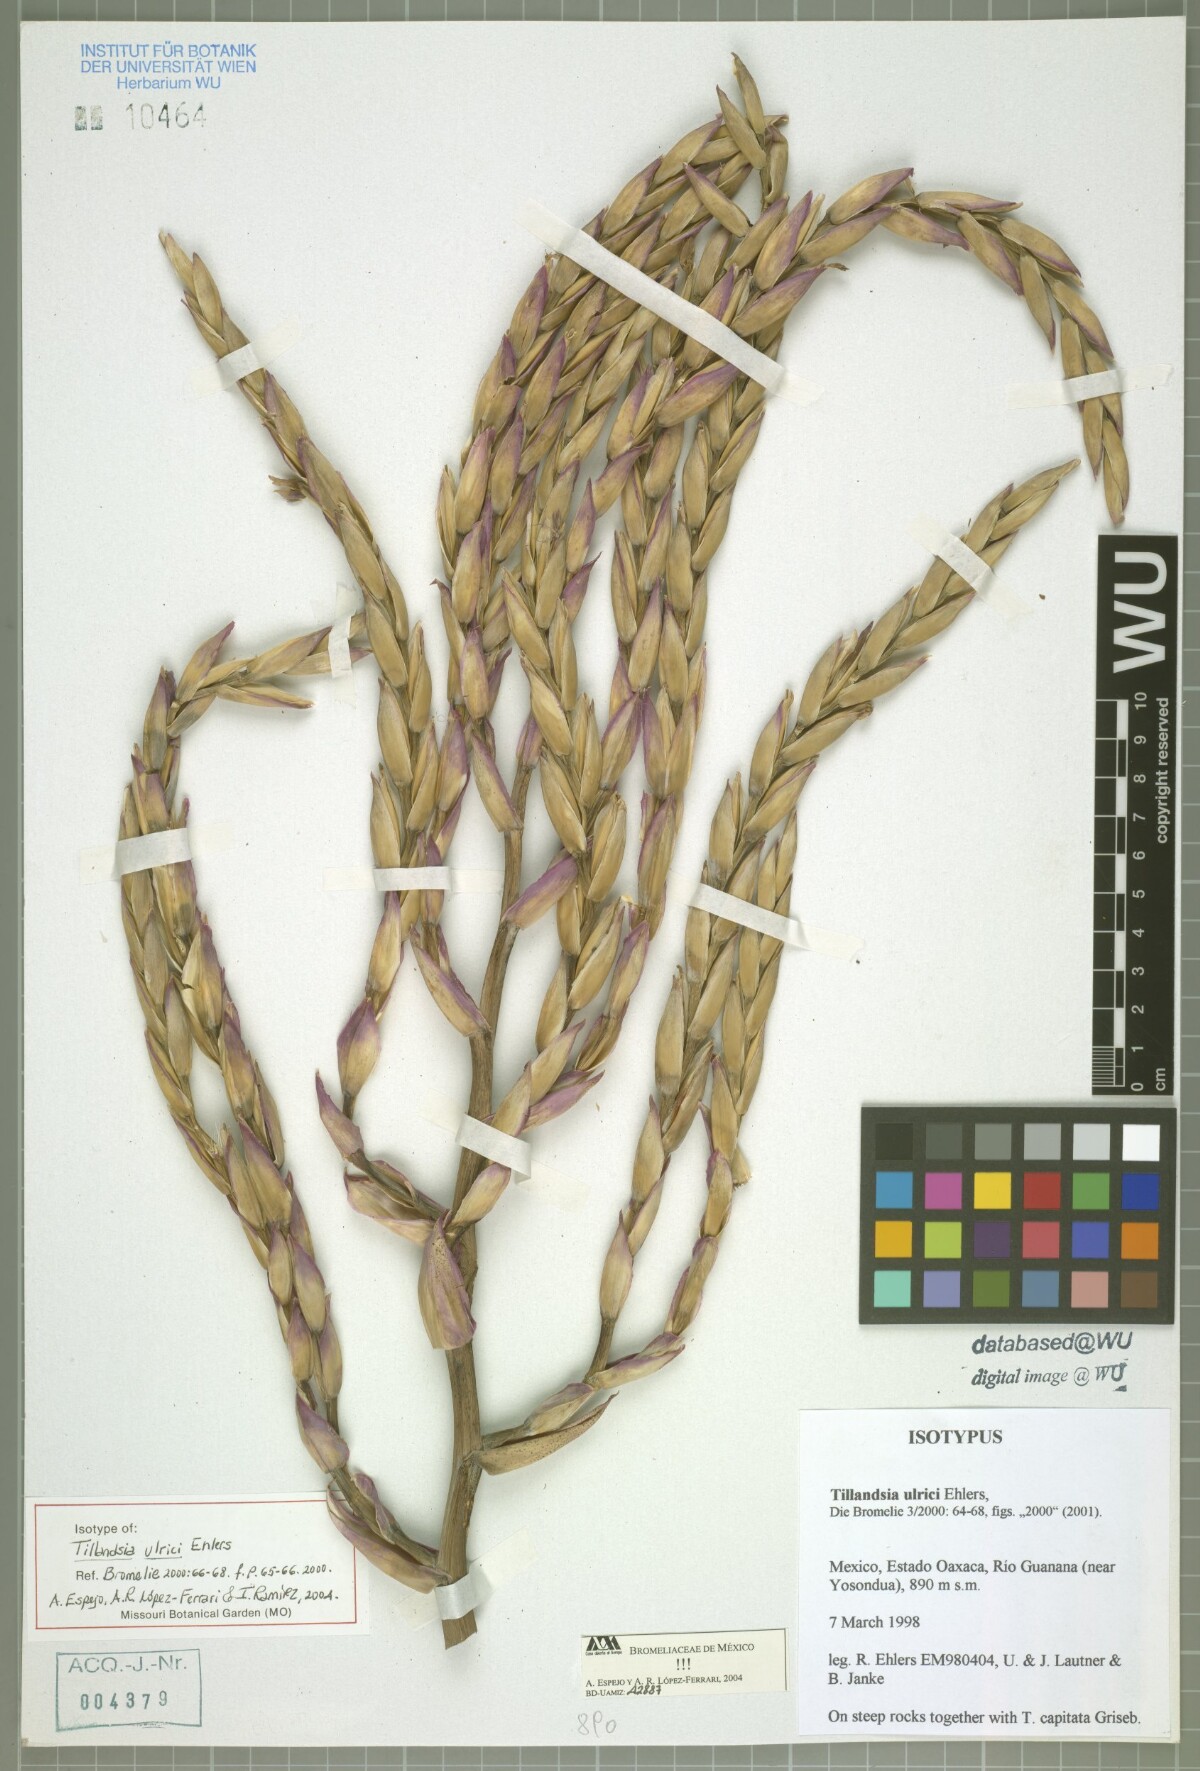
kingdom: Plantae
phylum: Tracheophyta
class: Liliopsida
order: Poales
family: Bromeliaceae
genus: Tillandsia
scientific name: Tillandsia ulrici
